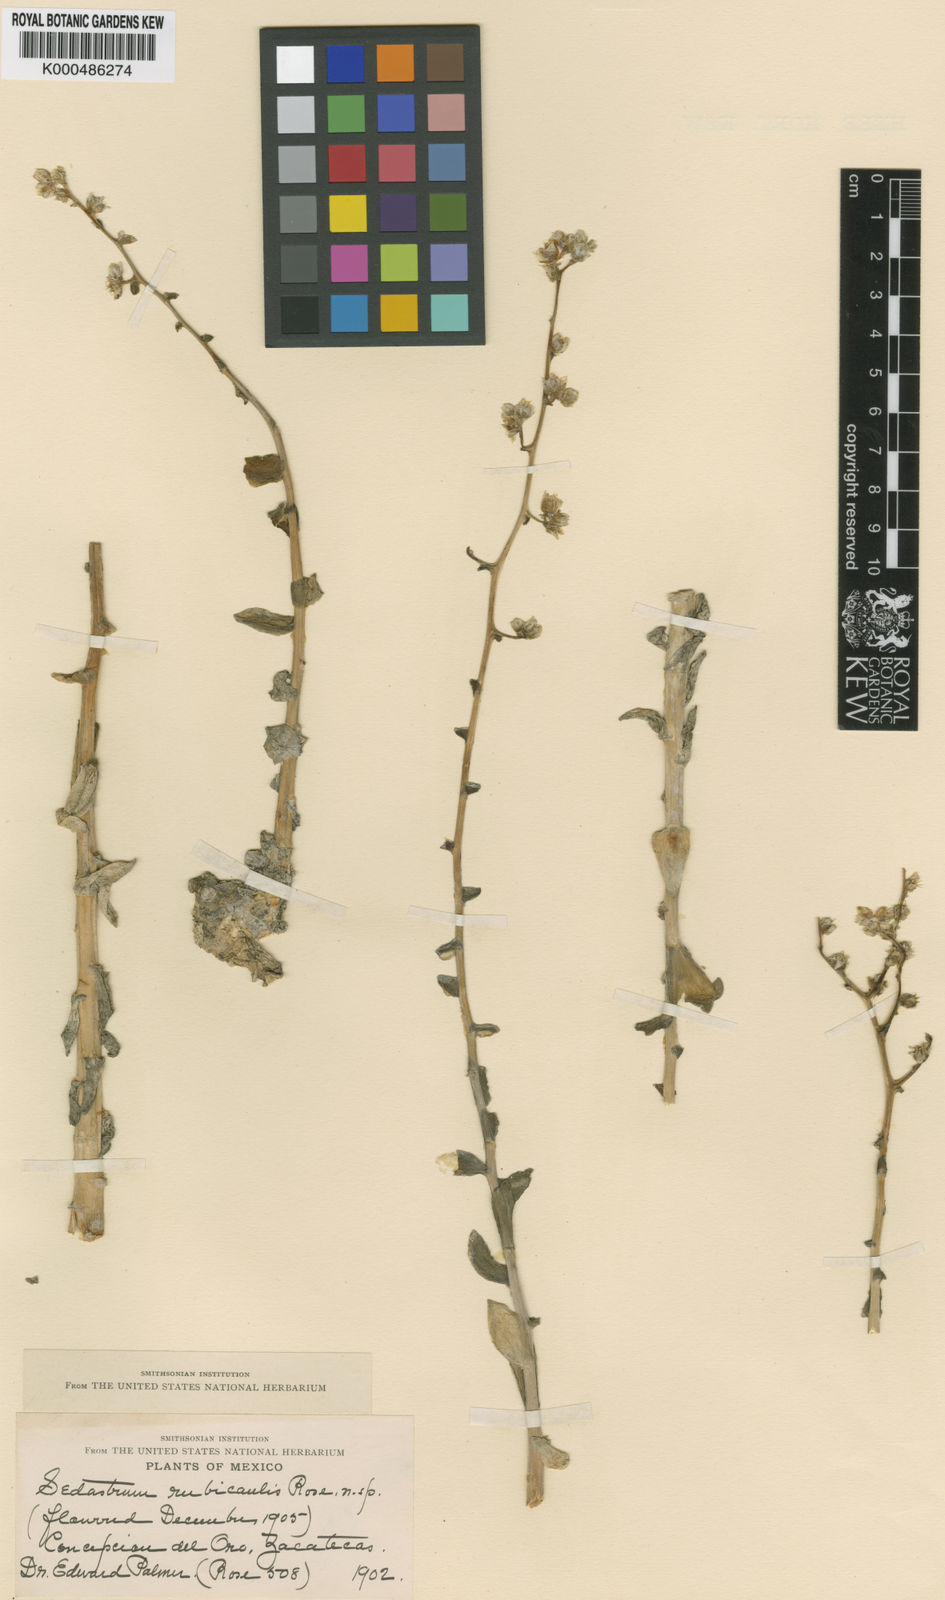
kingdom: Plantae
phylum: Tracheophyta
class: Magnoliopsida
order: Saxifragales
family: Crassulaceae
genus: Sedum
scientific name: Sedum
